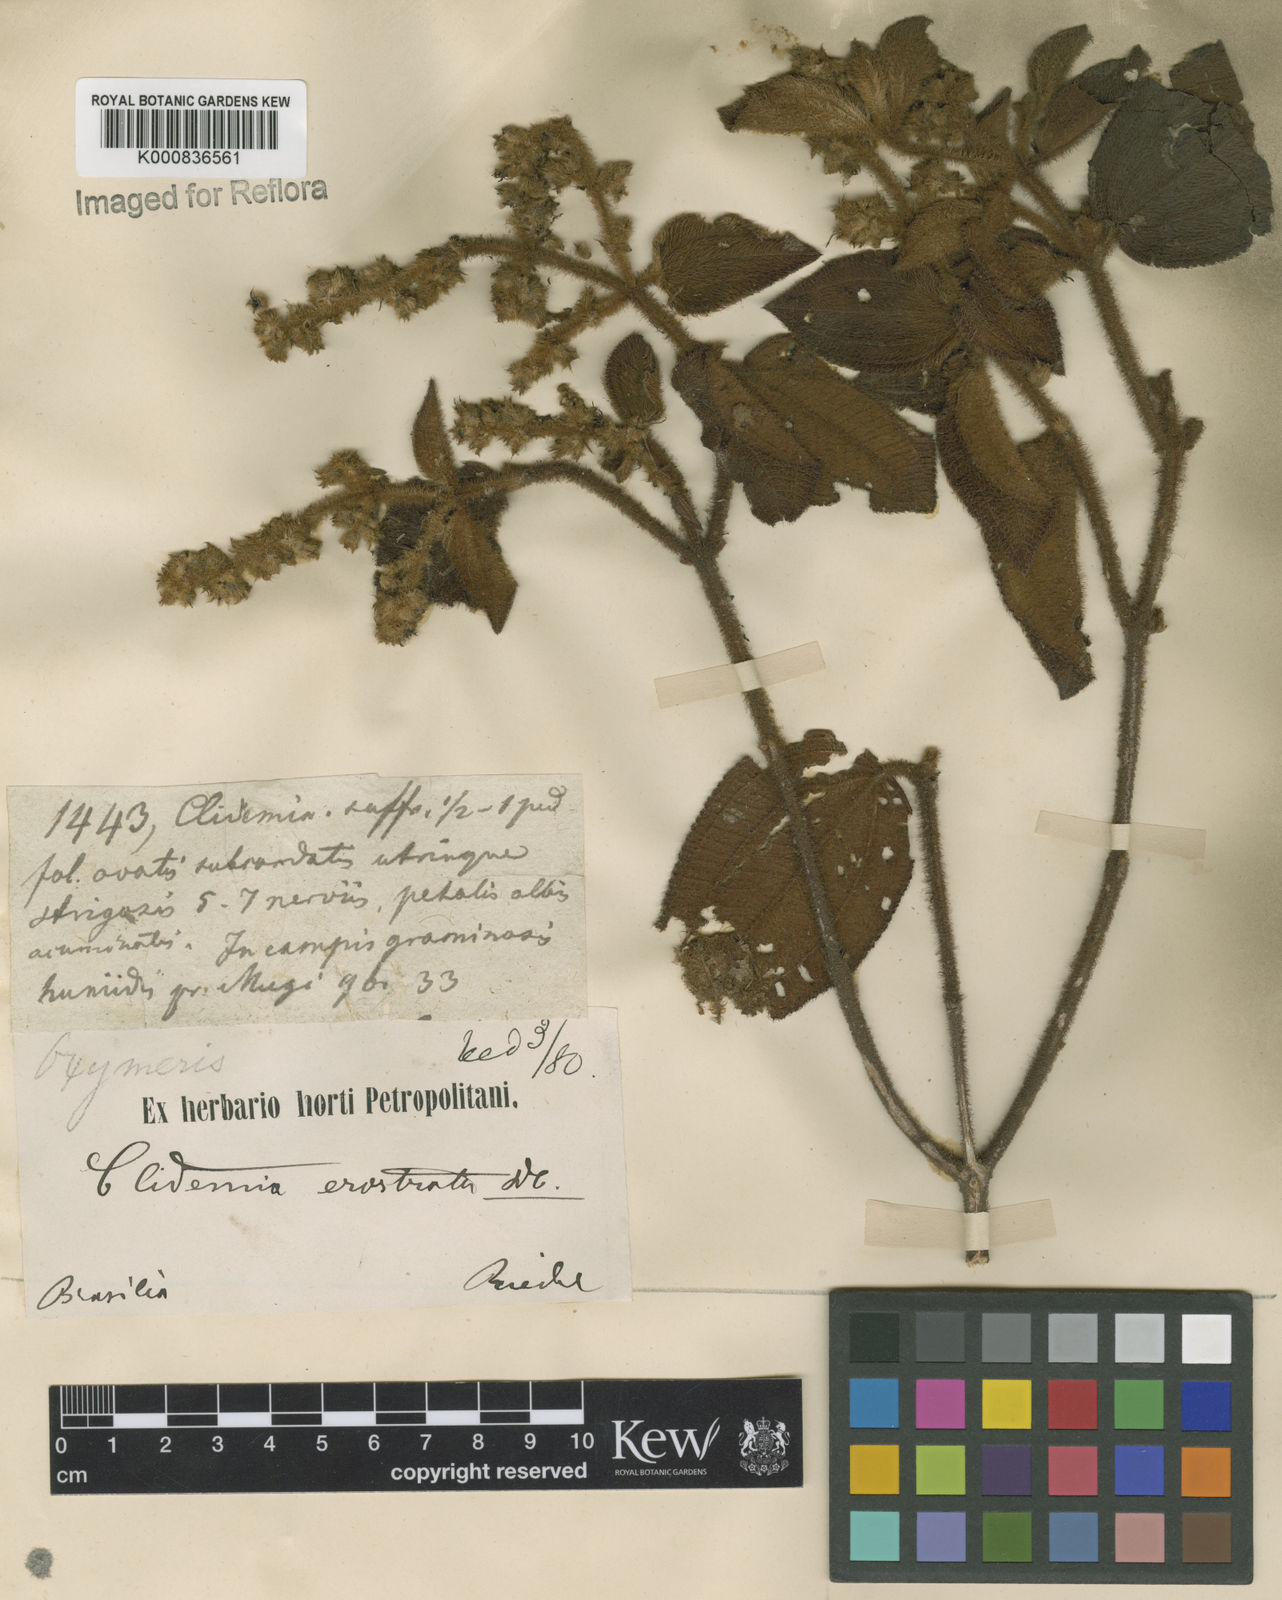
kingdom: Plantae
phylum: Tracheophyta
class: Magnoliopsida
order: Myrtales
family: Melastomataceae
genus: Miconia
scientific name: Miconia erostrata
